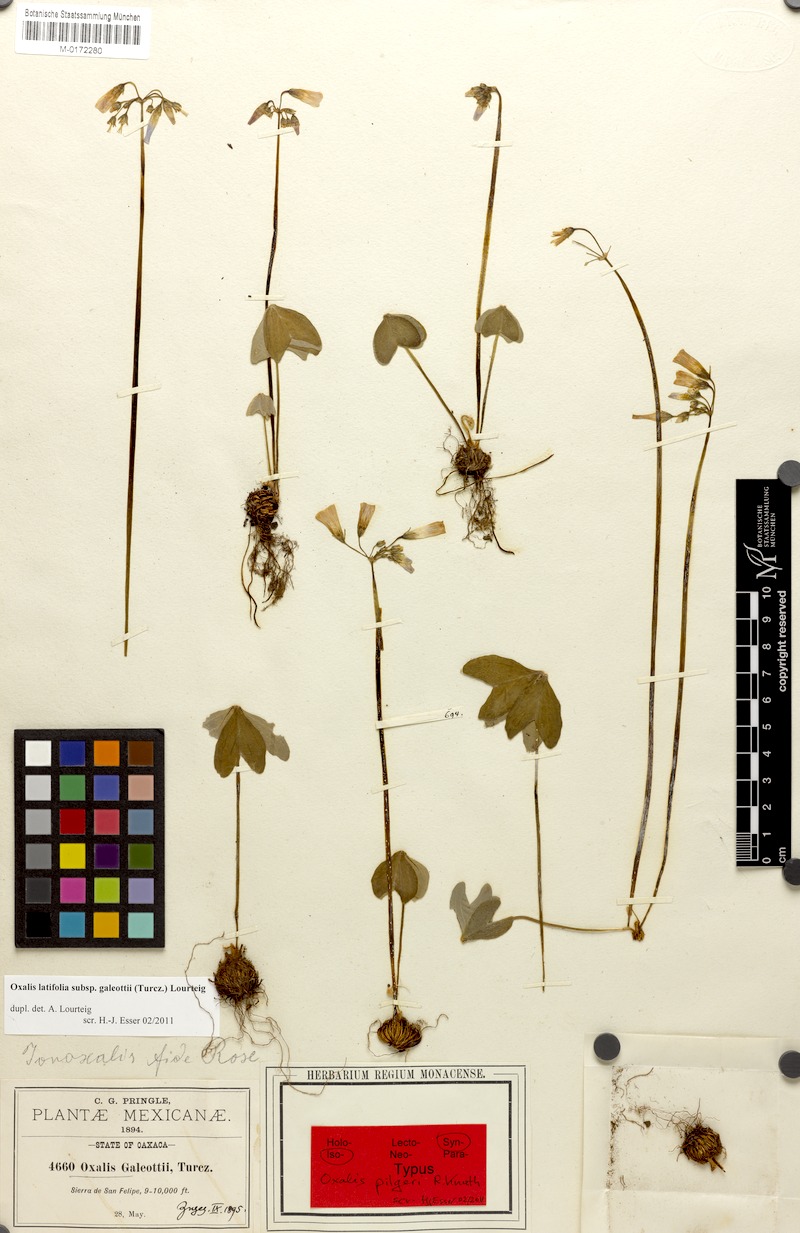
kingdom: Plantae
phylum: Tracheophyta
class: Magnoliopsida
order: Oxalidales
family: Oxalidaceae
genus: Oxalis
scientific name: Oxalis galeottii
